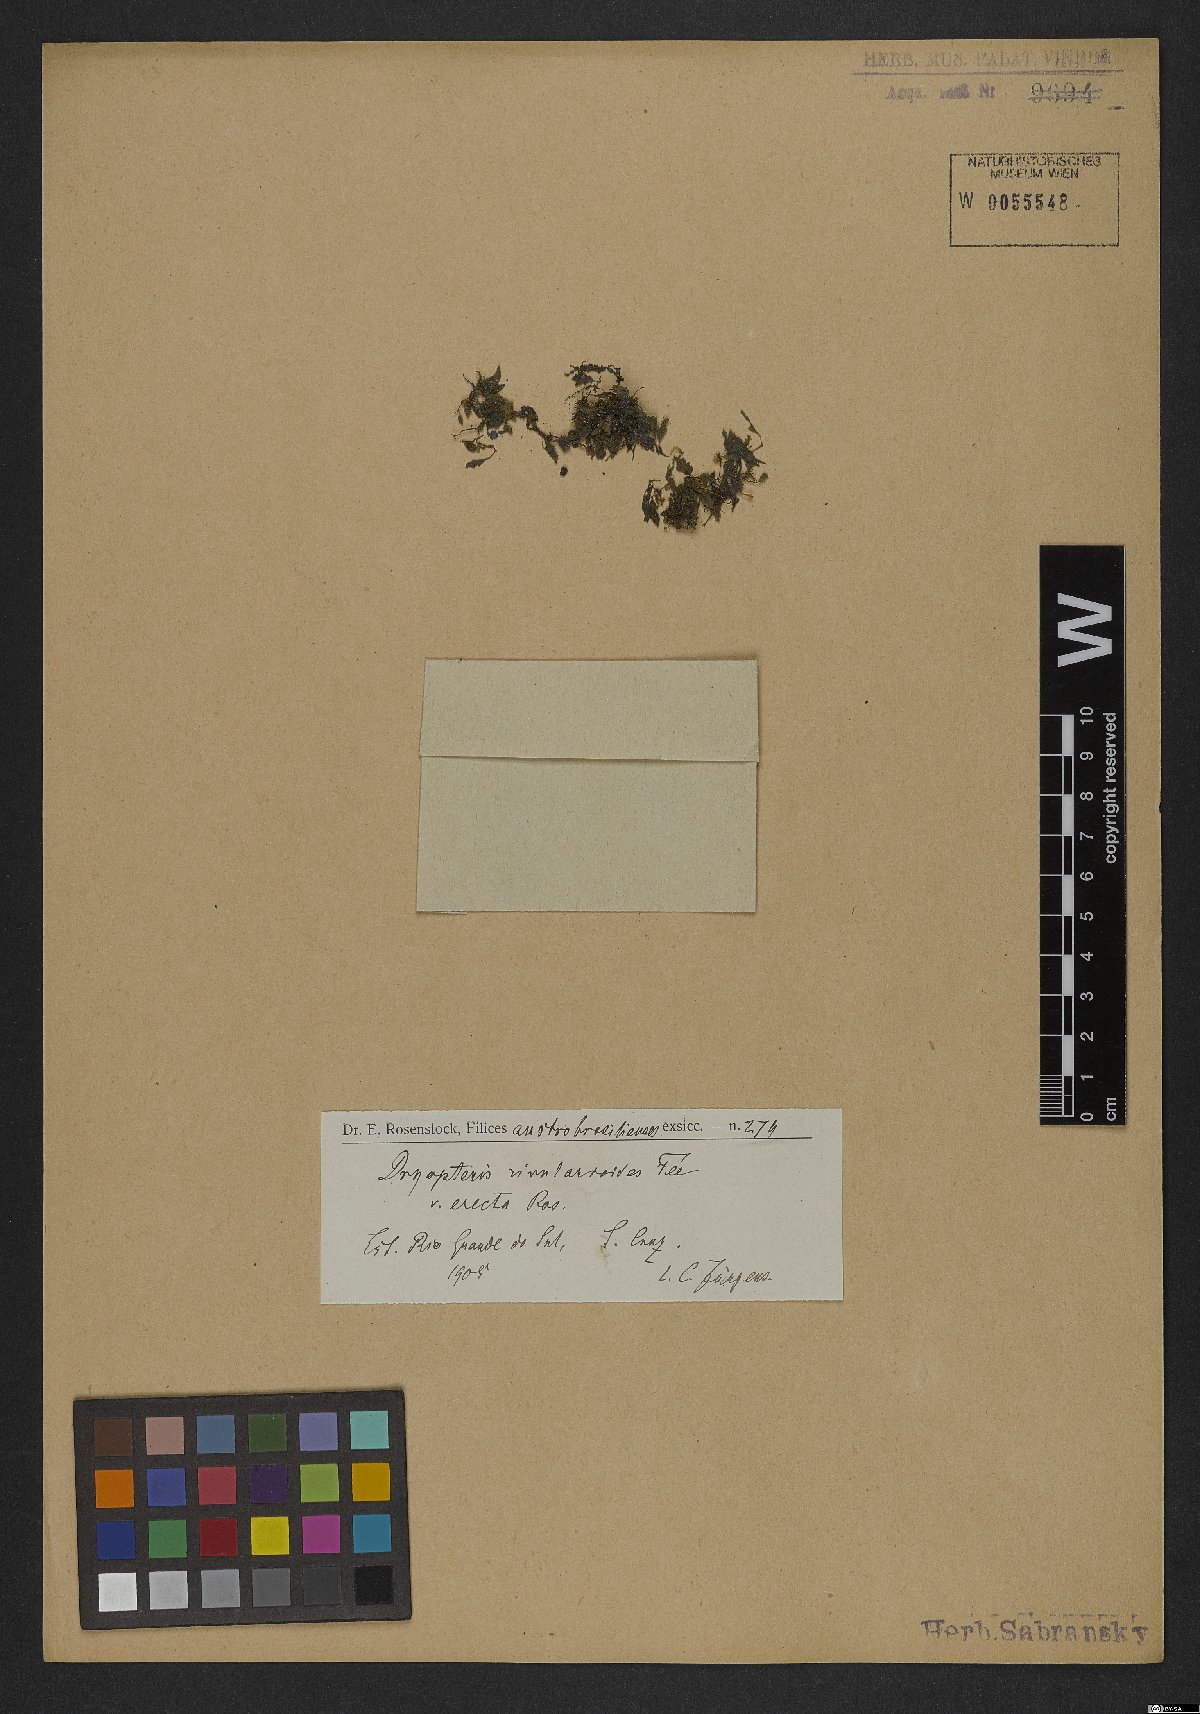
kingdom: Plantae
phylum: Tracheophyta
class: Polypodiopsida
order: Polypodiales
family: Thelypteridaceae
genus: Amauropelta
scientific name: Amauropelta opposita
